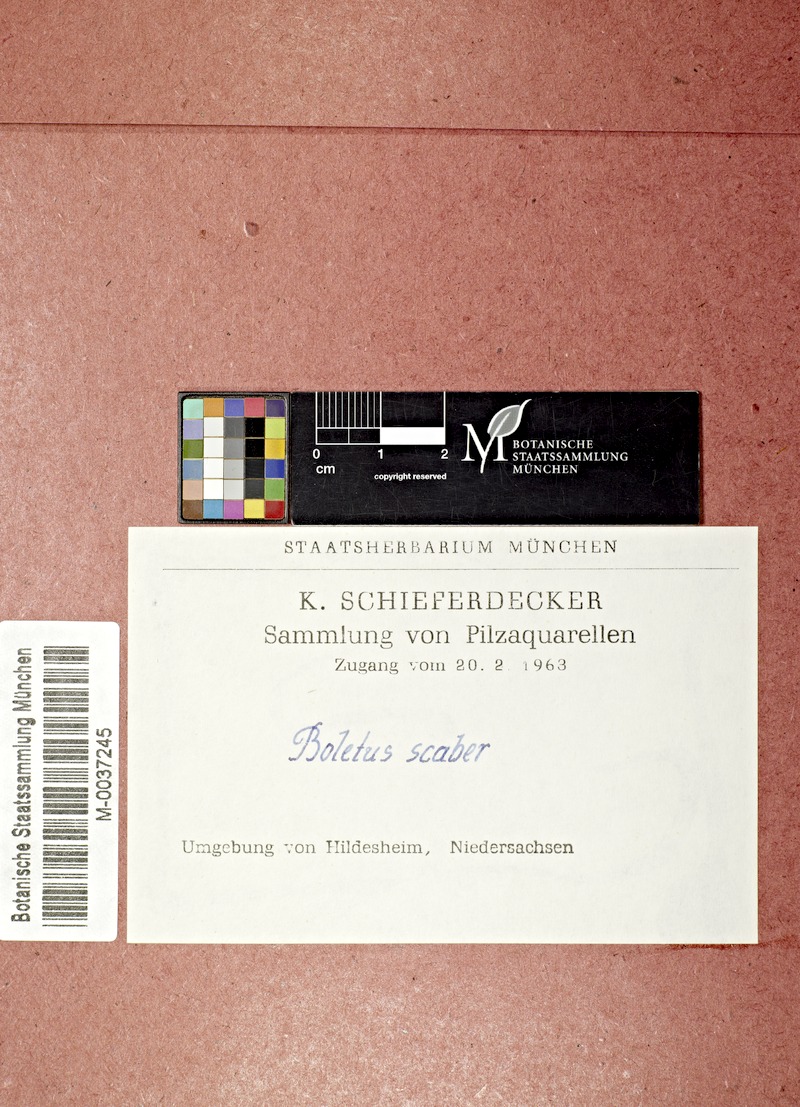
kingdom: Fungi
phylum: Basidiomycota
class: Agaricomycetes
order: Boletales
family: Boletaceae
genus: Leccinum
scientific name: Leccinum scabrum
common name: Blushing bolete
